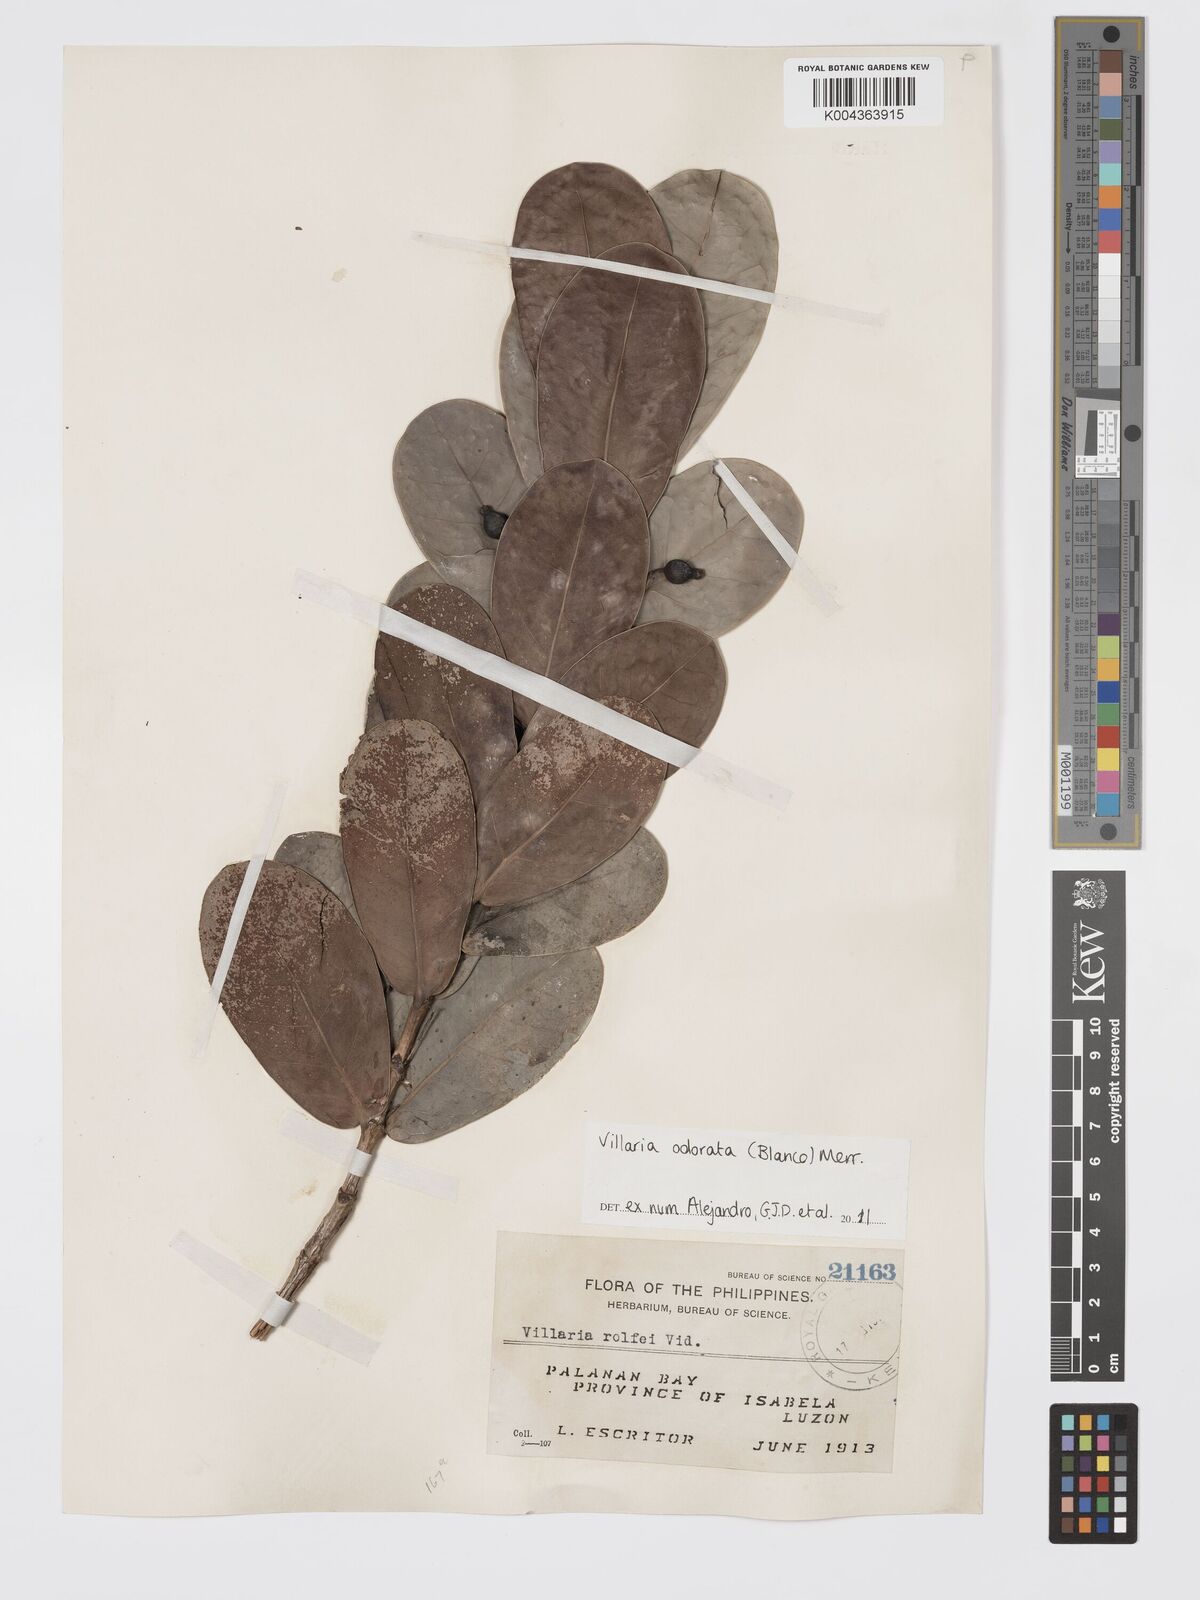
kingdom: Plantae
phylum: Tracheophyta
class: Magnoliopsida
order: Gentianales
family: Rubiaceae
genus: Villaria
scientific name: Villaria odorata
